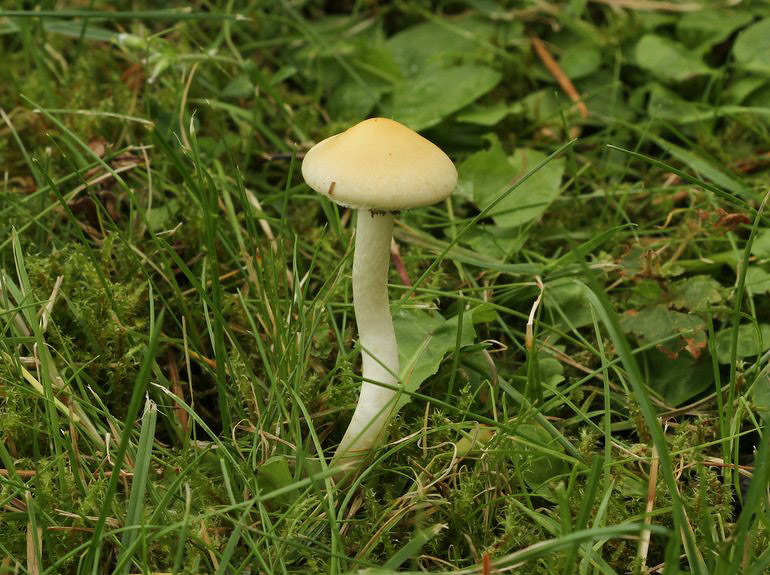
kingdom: Fungi
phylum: Basidiomycota
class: Agaricomycetes
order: Agaricales
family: Strophariaceae
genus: Leratiomyces
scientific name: Leratiomyces percevalii
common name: træflis-bredblad
